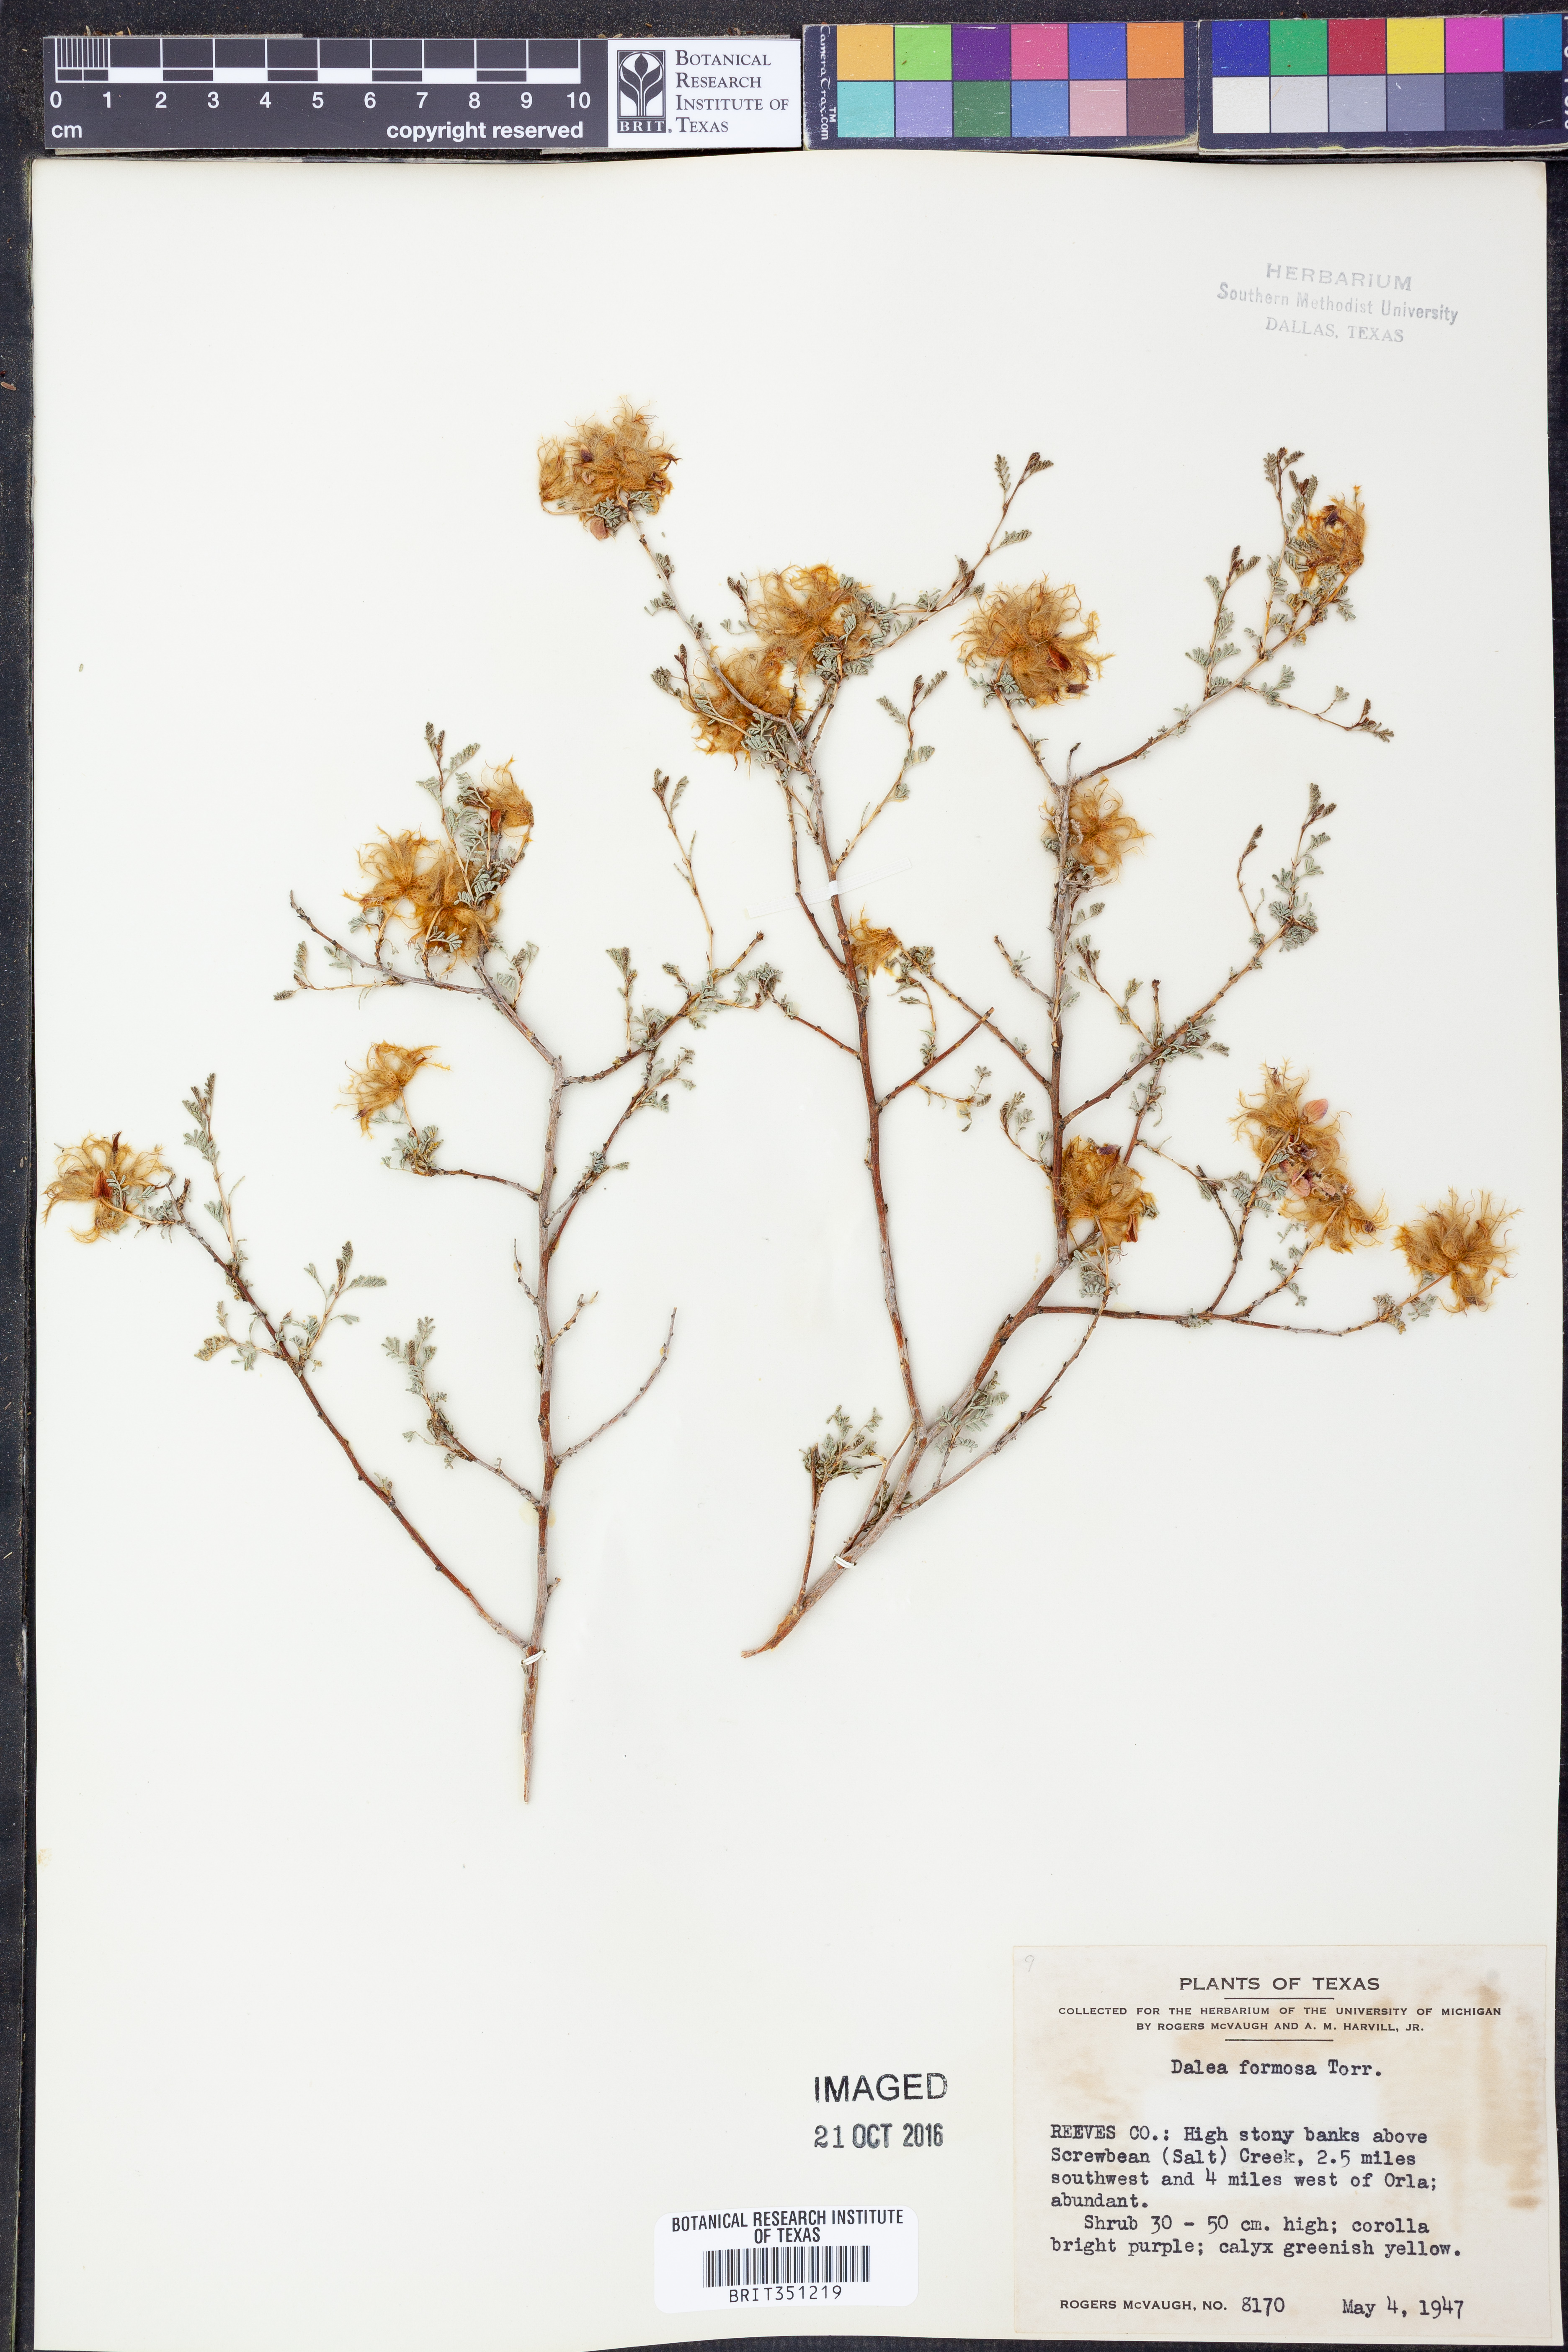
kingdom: Plantae
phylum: Tracheophyta
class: Magnoliopsida
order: Fabales
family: Fabaceae
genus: Dalea
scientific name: Dalea formosa
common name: Feather-plume dalea
